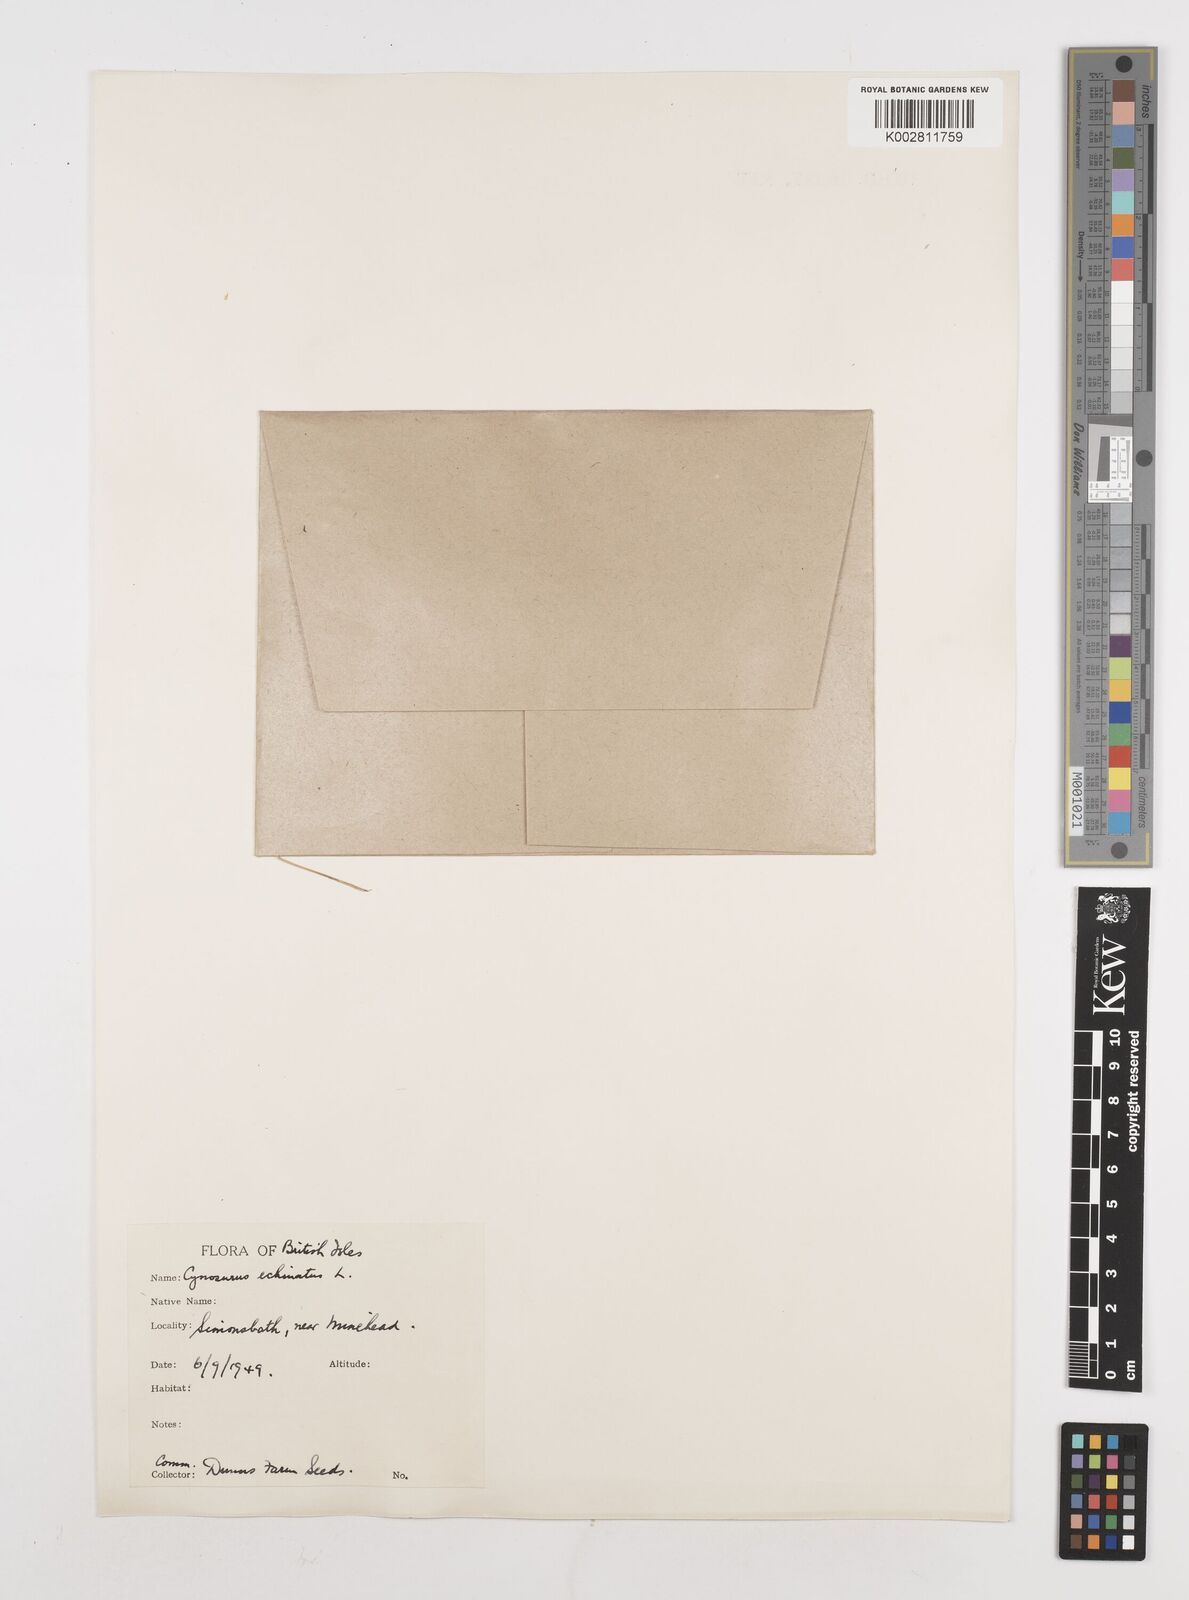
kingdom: Plantae
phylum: Tracheophyta
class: Liliopsida
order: Poales
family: Poaceae
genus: Cynosurus
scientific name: Cynosurus echinatus
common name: Rough dog's-tail
